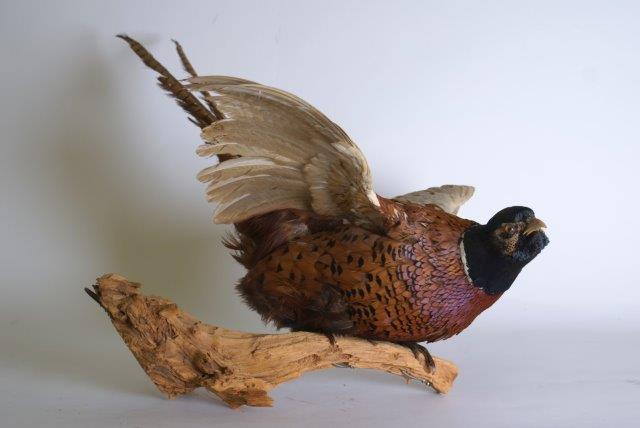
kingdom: Animalia
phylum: Chordata
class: Aves
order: Galliformes
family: Phasianidae
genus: Phasianus
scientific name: Phasianus colchicus
